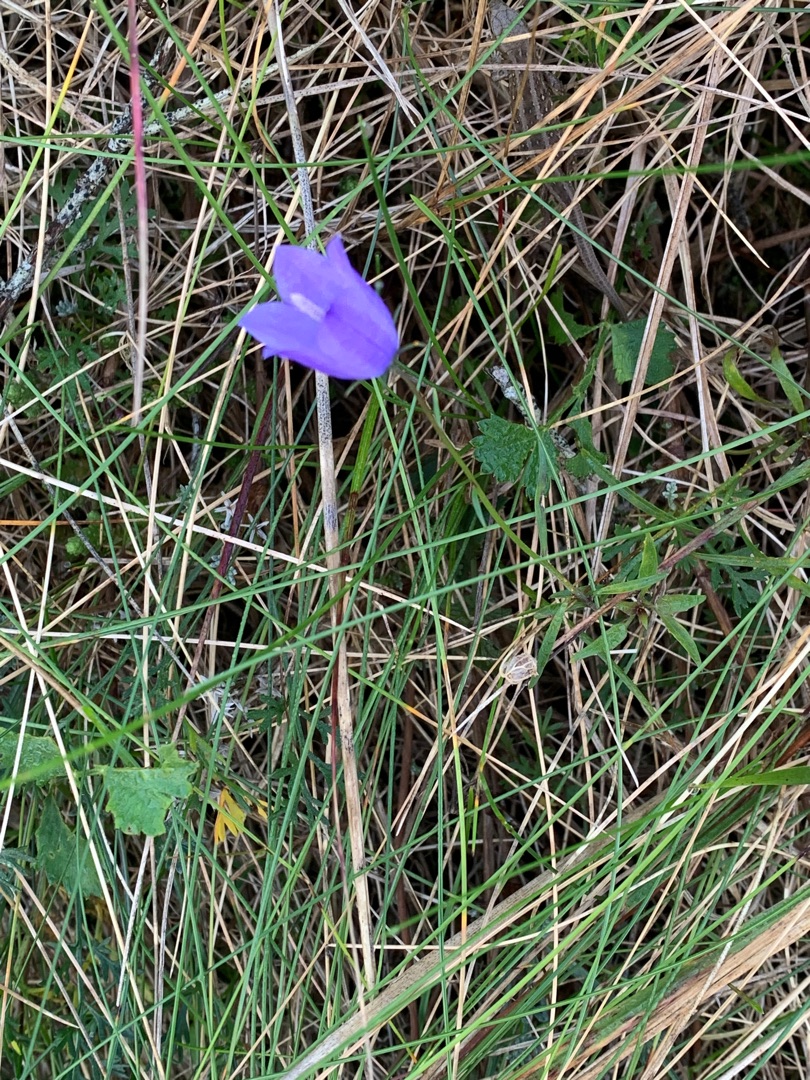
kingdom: Plantae
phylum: Tracheophyta
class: Magnoliopsida
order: Asterales
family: Campanulaceae
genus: Campanula
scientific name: Campanula rotundifolia
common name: Liden klokke
